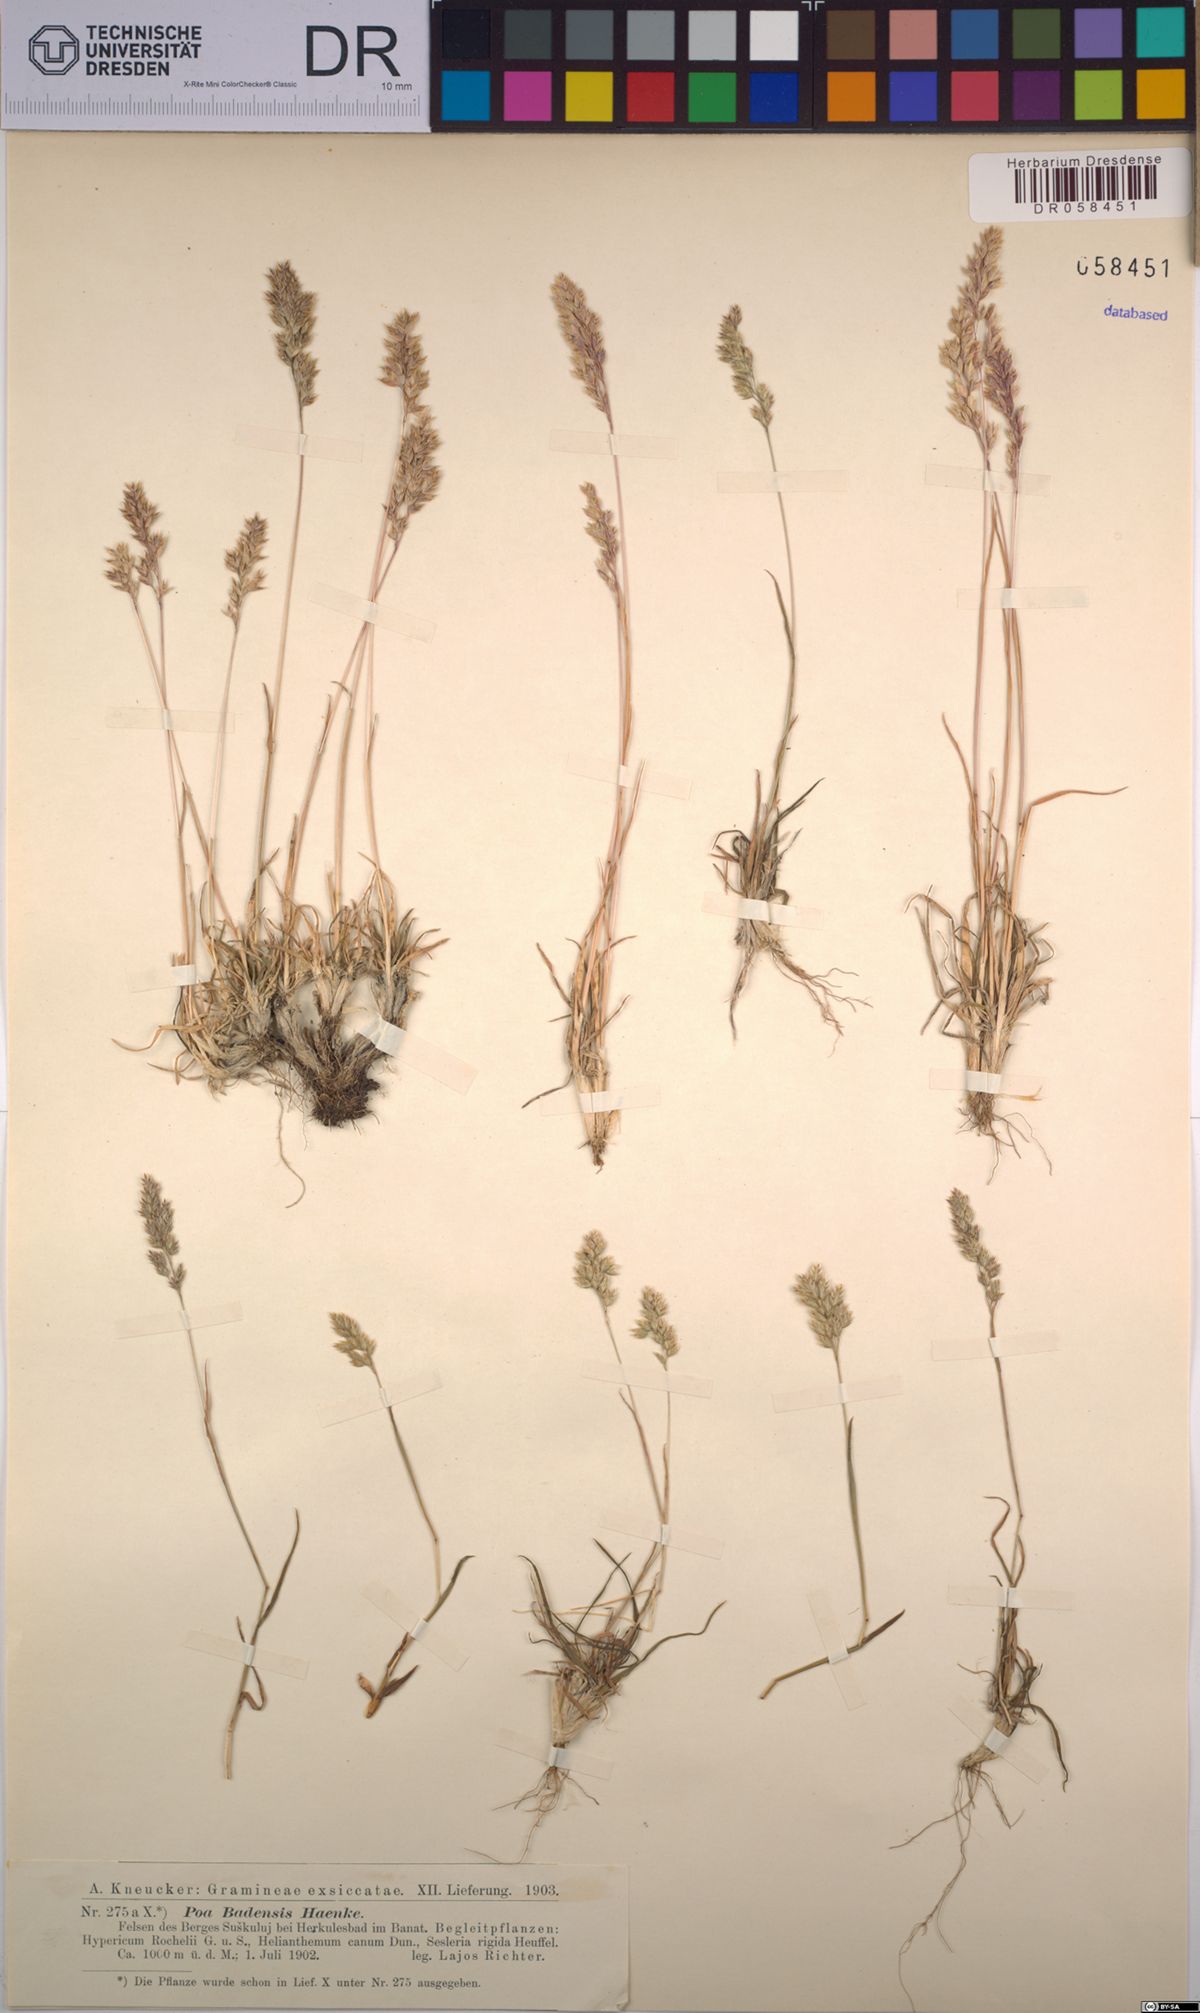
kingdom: Plantae
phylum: Tracheophyta
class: Liliopsida
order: Poales
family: Poaceae
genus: Poa
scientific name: Poa badensis
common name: Baden's bluegrass
